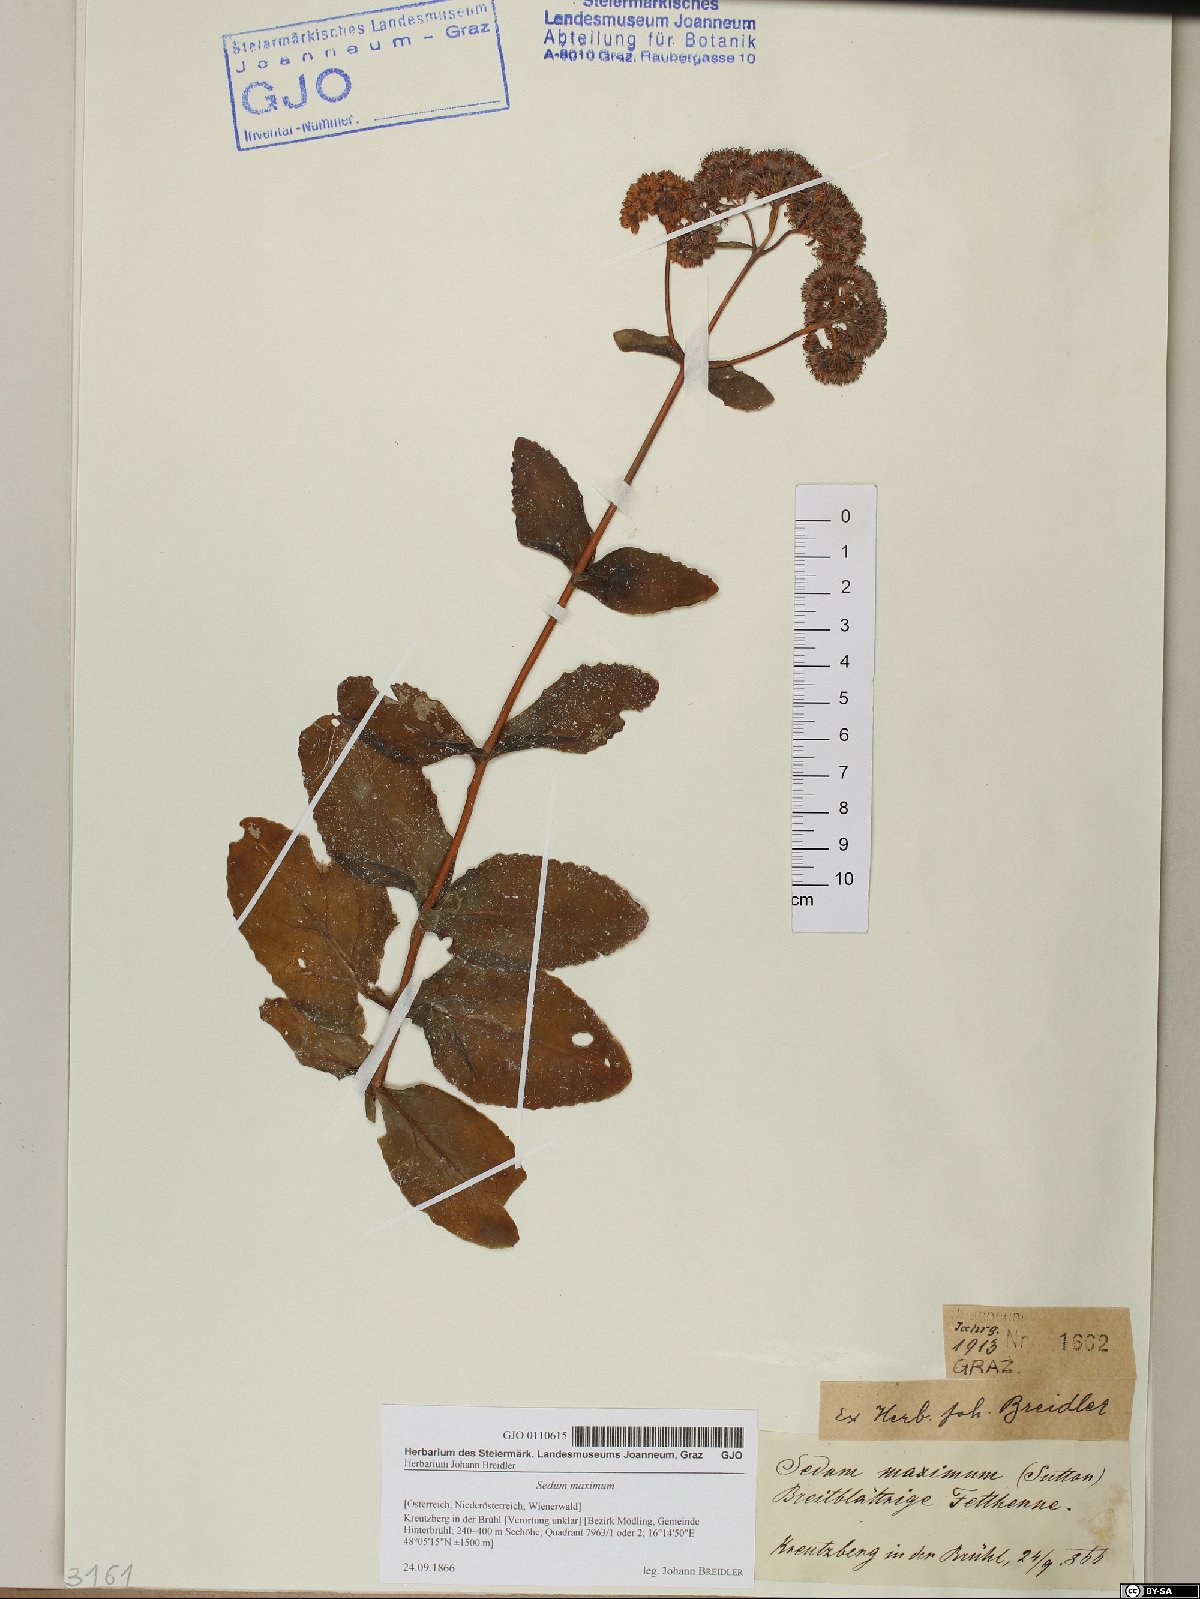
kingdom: Plantae
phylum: Tracheophyta
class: Magnoliopsida
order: Saxifragales
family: Crassulaceae
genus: Hylotelephium
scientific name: Hylotelephium maximum
